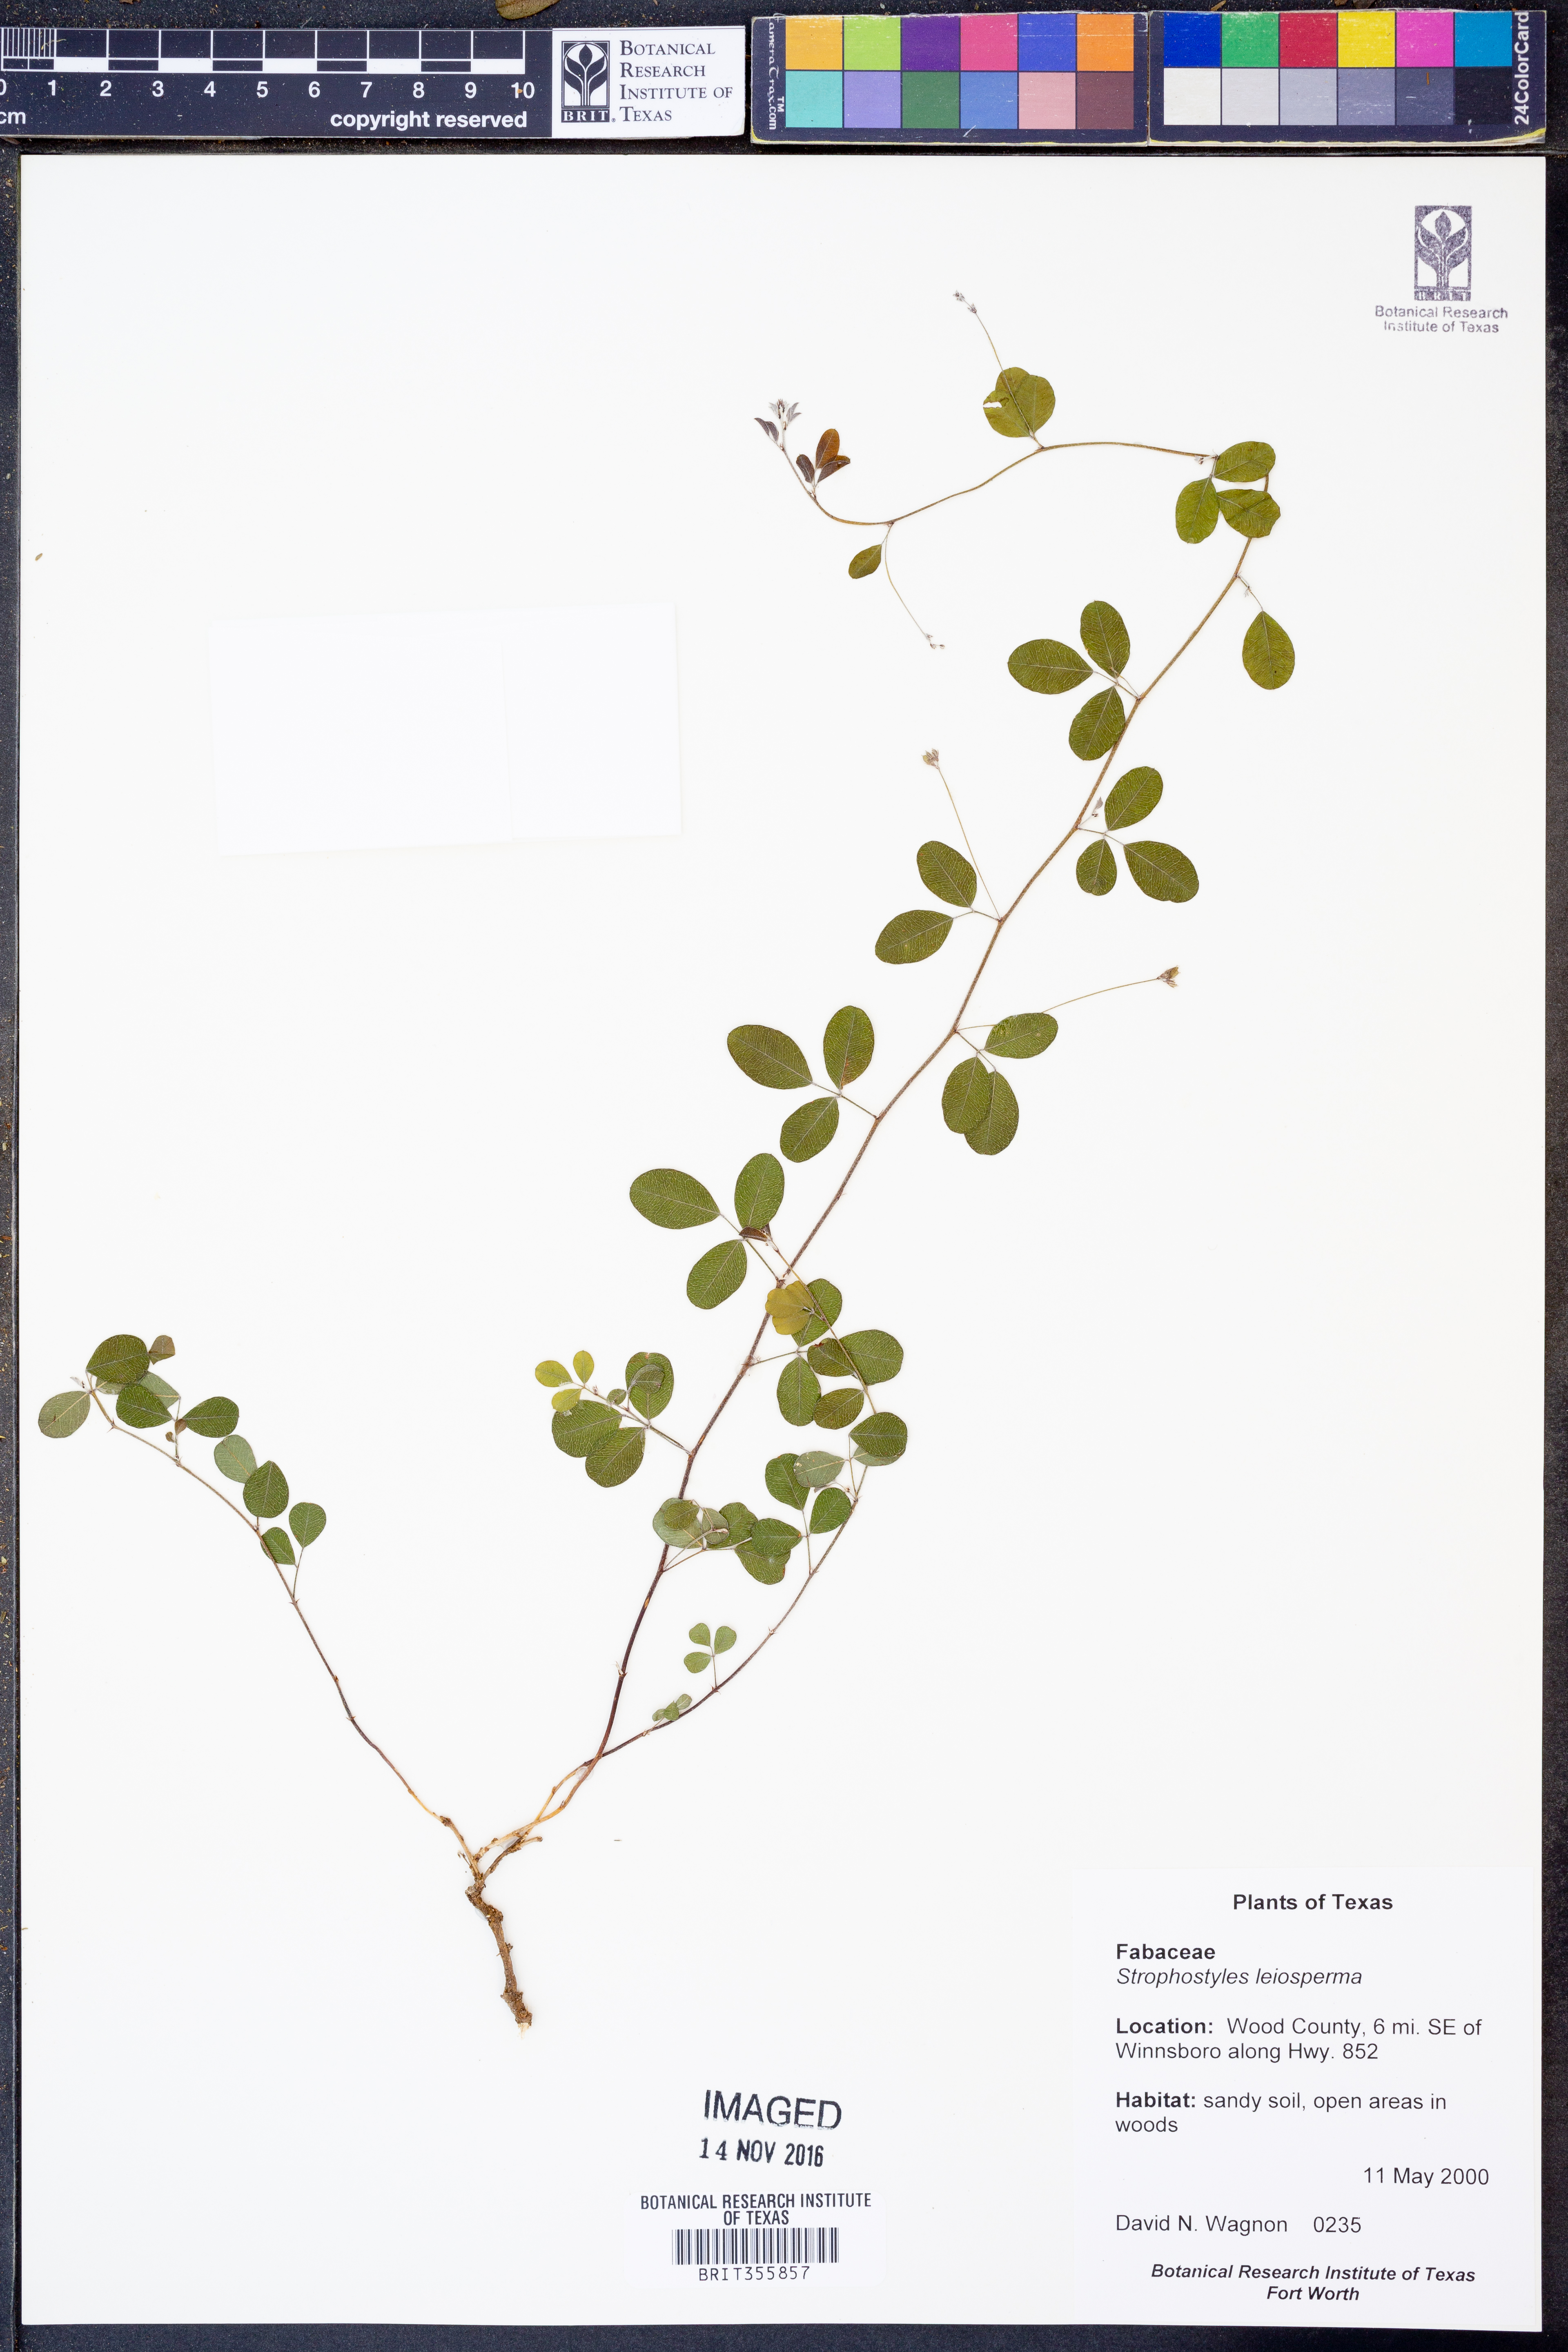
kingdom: Plantae
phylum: Tracheophyta
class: Magnoliopsida
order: Fabales
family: Fabaceae
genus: Strophostyles
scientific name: Strophostyles leiosperma
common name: Smooth-seed wild bean
